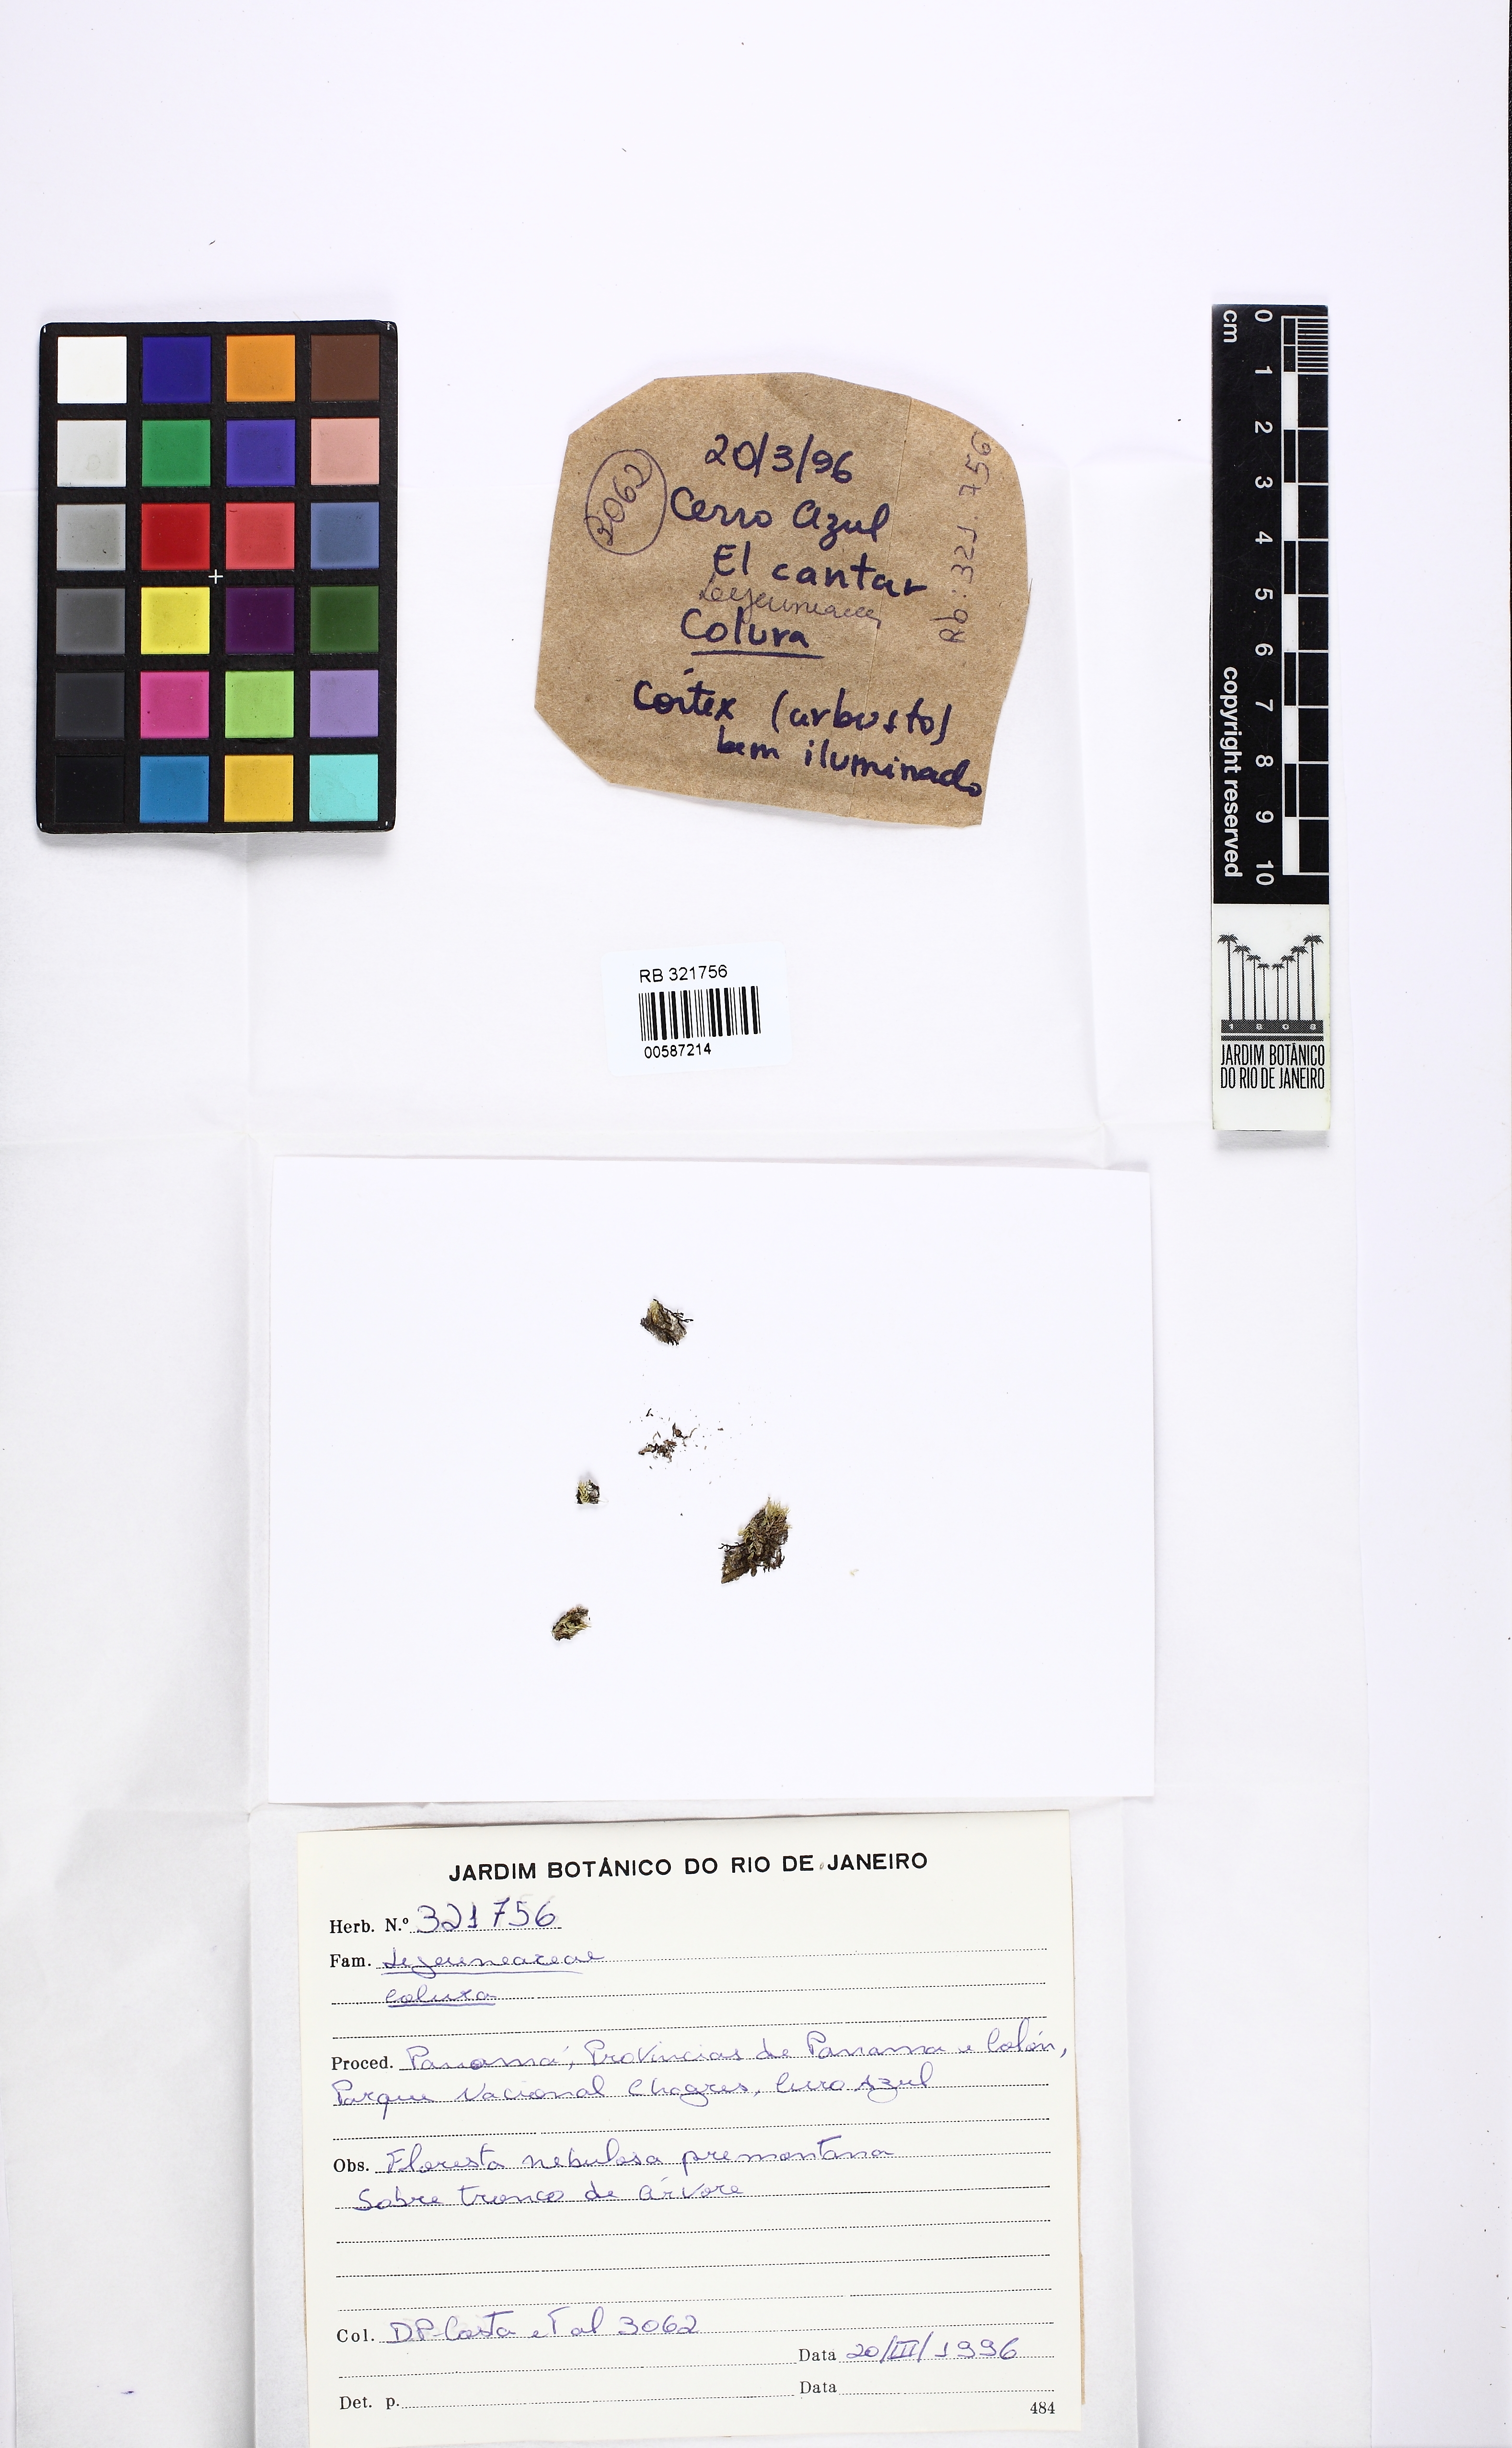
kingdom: Plantae
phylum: Marchantiophyta
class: Jungermanniopsida
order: Porellales
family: Lejeuneaceae
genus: Colura
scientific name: Colura
